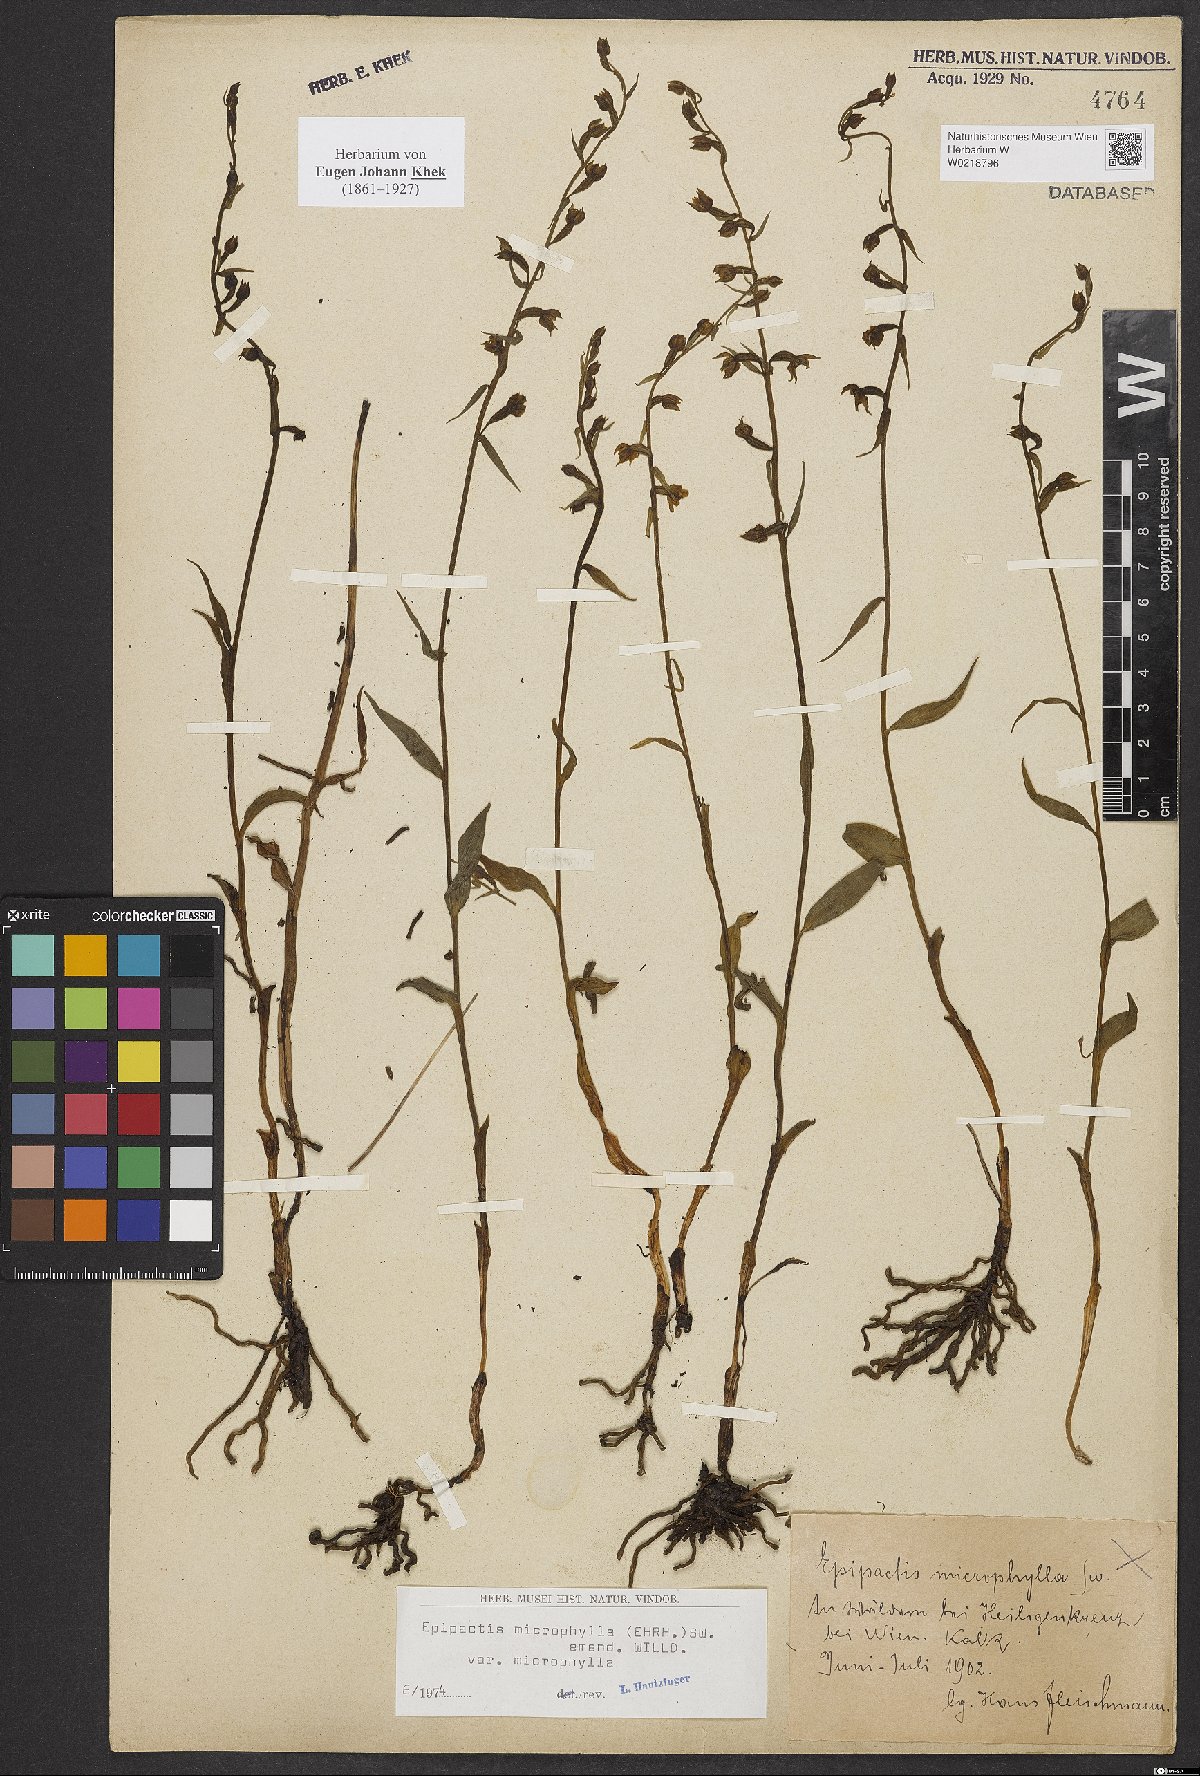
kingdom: Plantae
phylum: Tracheophyta
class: Liliopsida
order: Asparagales
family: Orchidaceae
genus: Epipactis
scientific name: Epipactis microphylla
